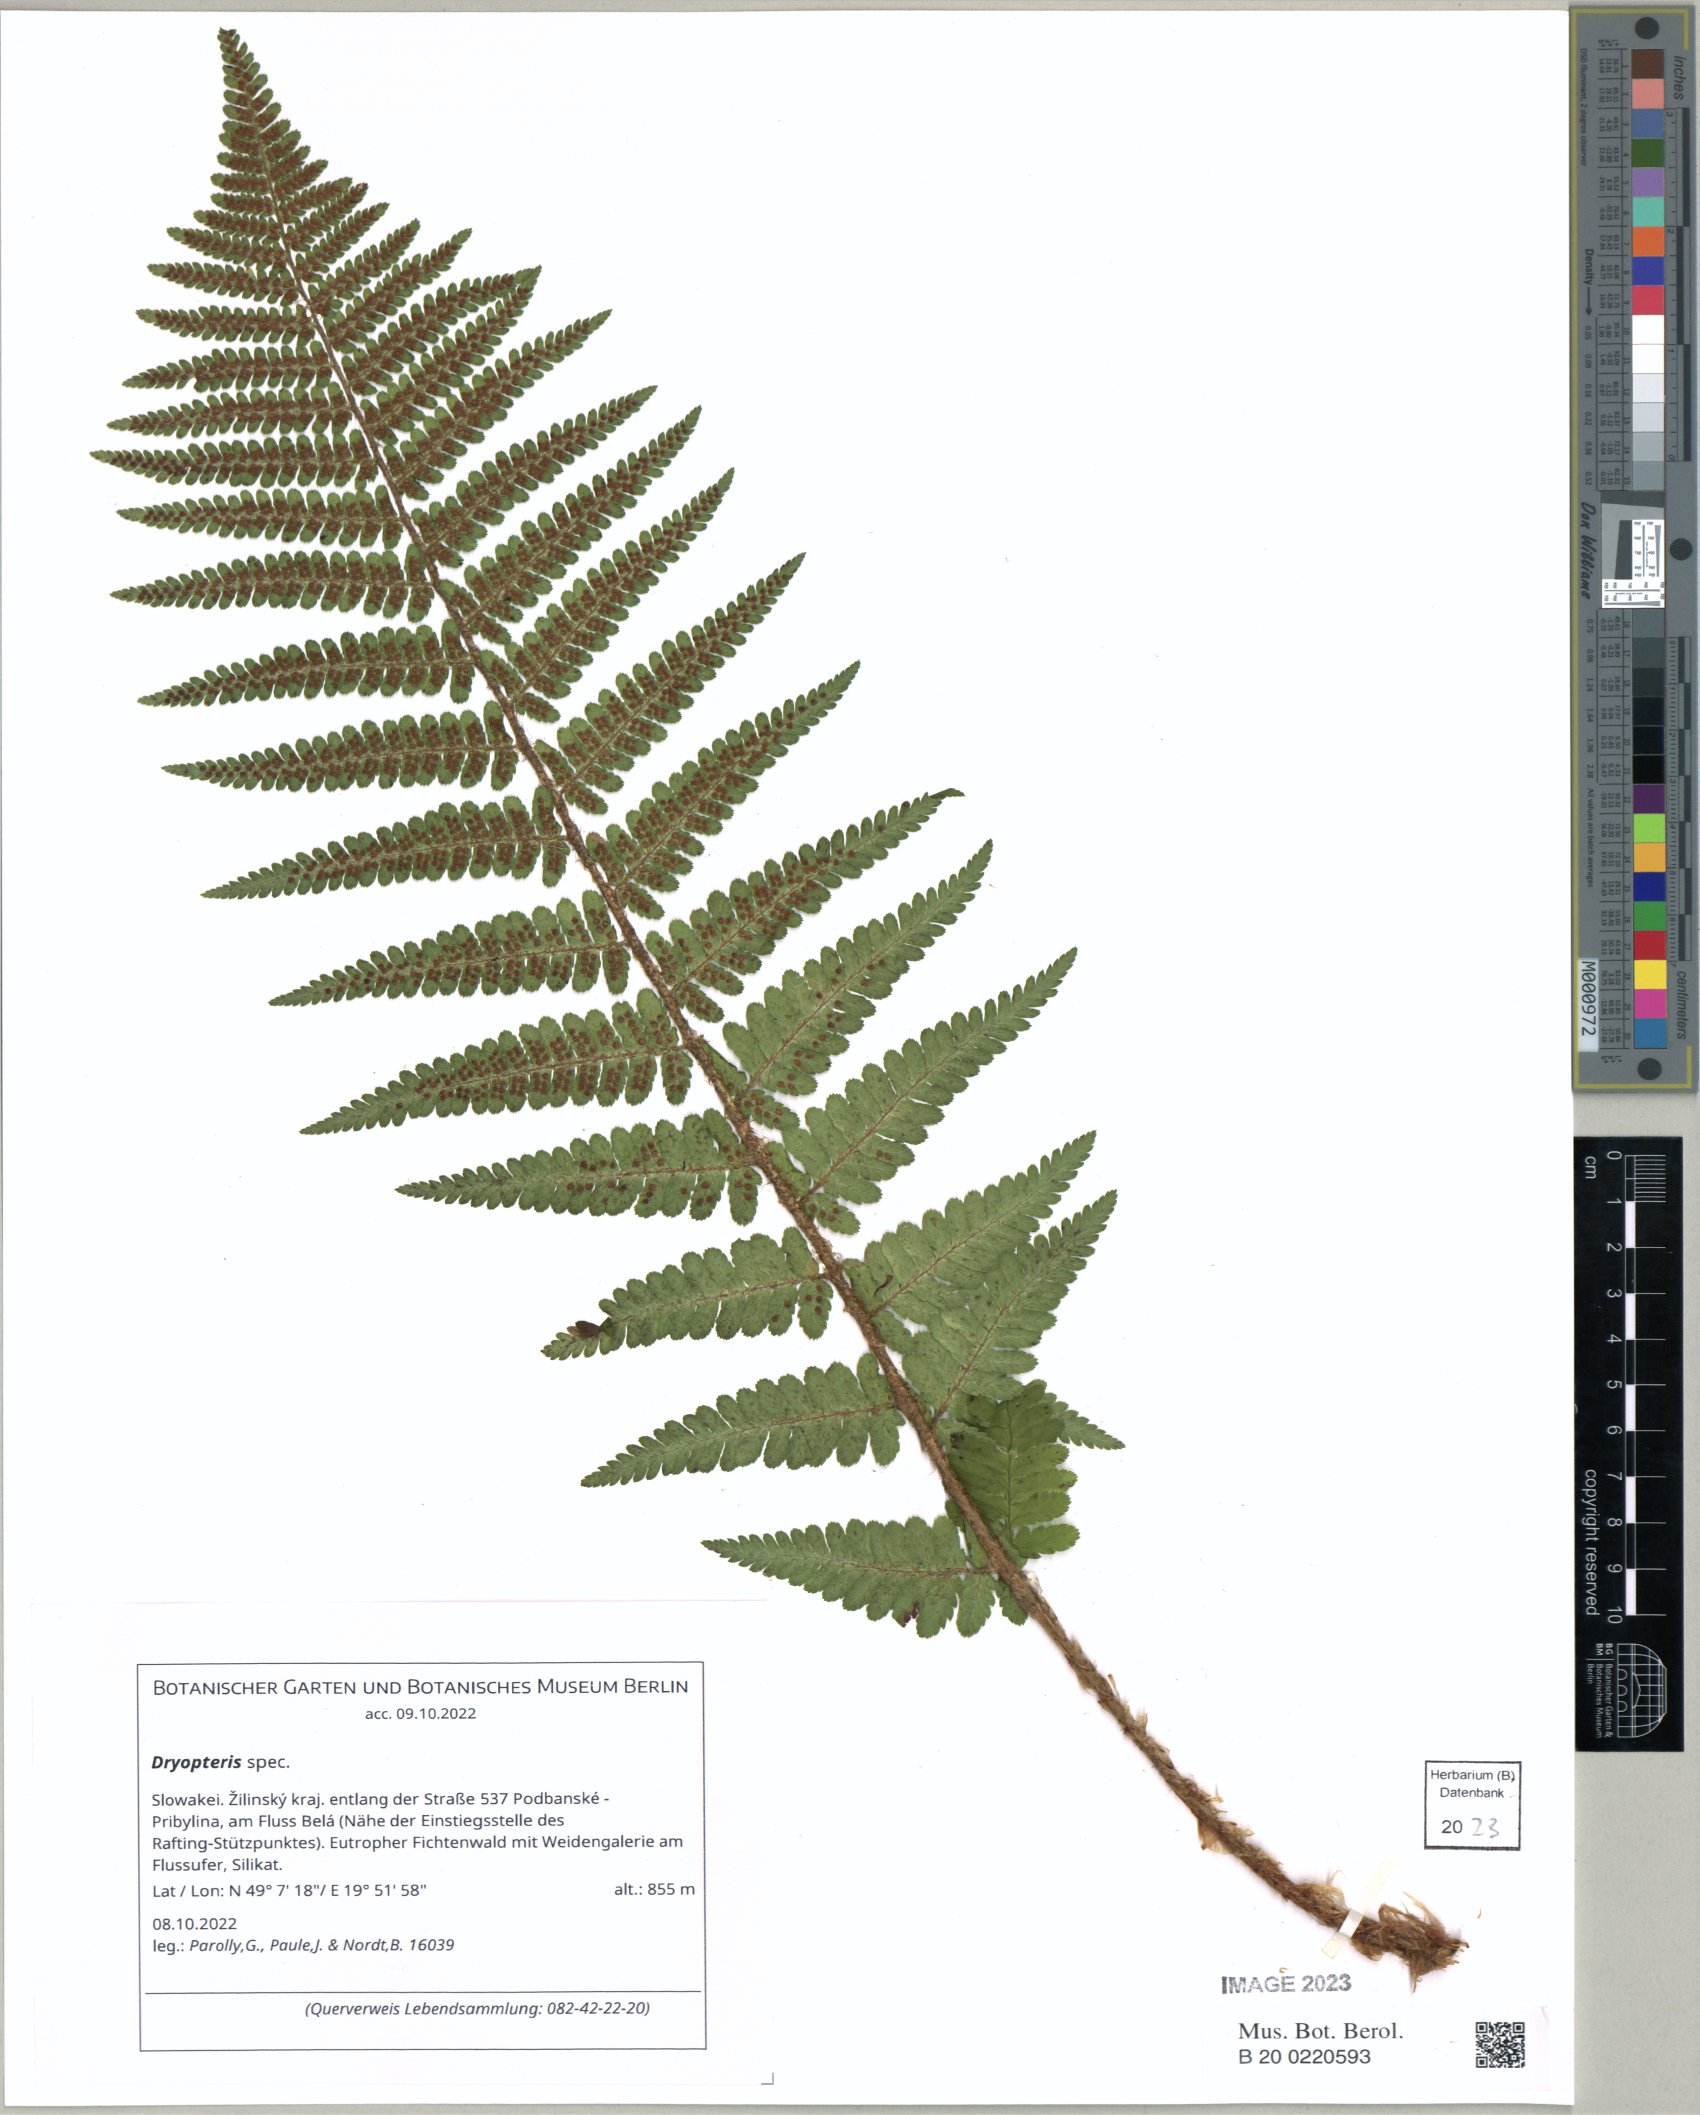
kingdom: Plantae
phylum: Tracheophyta
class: Polypodiopsida
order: Polypodiales
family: Dryopteridaceae
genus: Dryopteris
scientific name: Dryopteris cristata
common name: Crested wood fern
